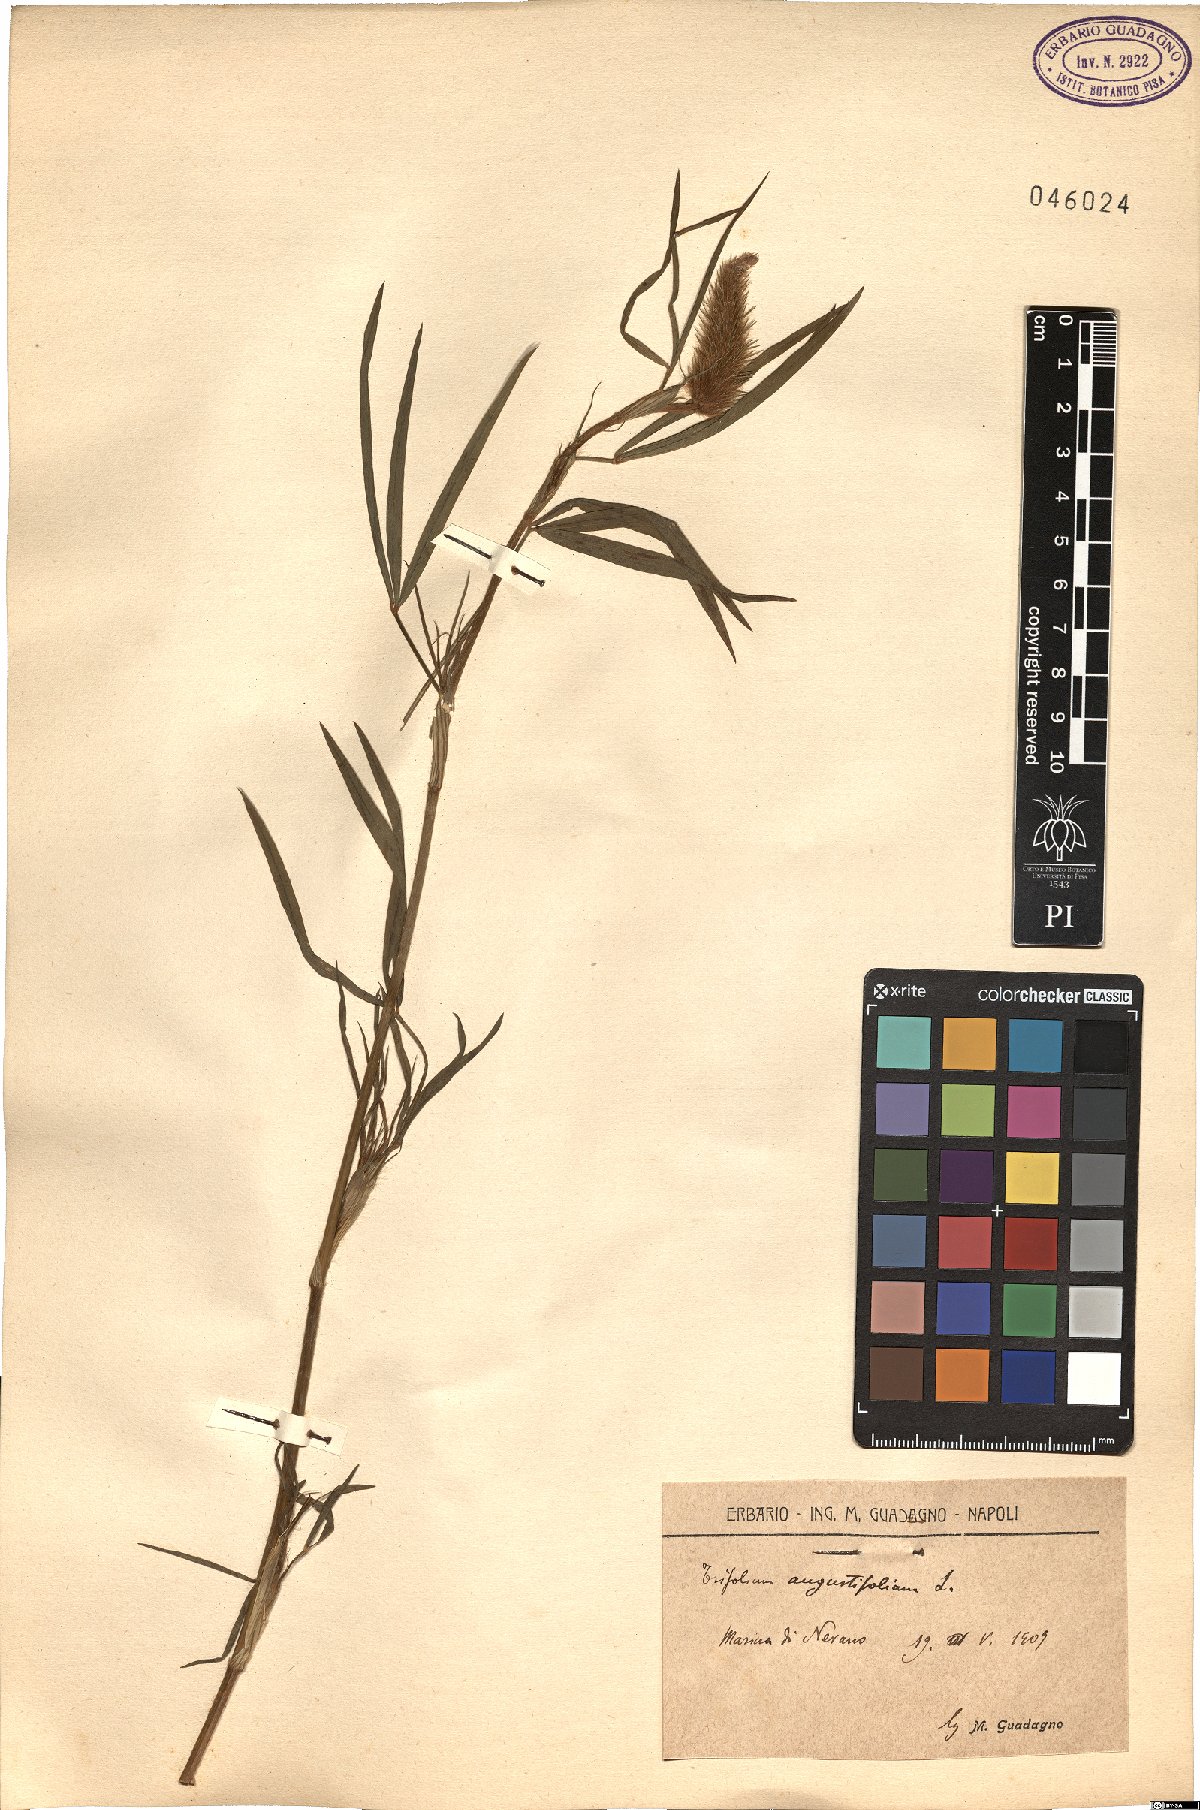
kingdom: Plantae
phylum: Tracheophyta
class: Magnoliopsida
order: Fabales
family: Fabaceae
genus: Trifolium
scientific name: Trifolium angustifolium
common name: Narrow clover
